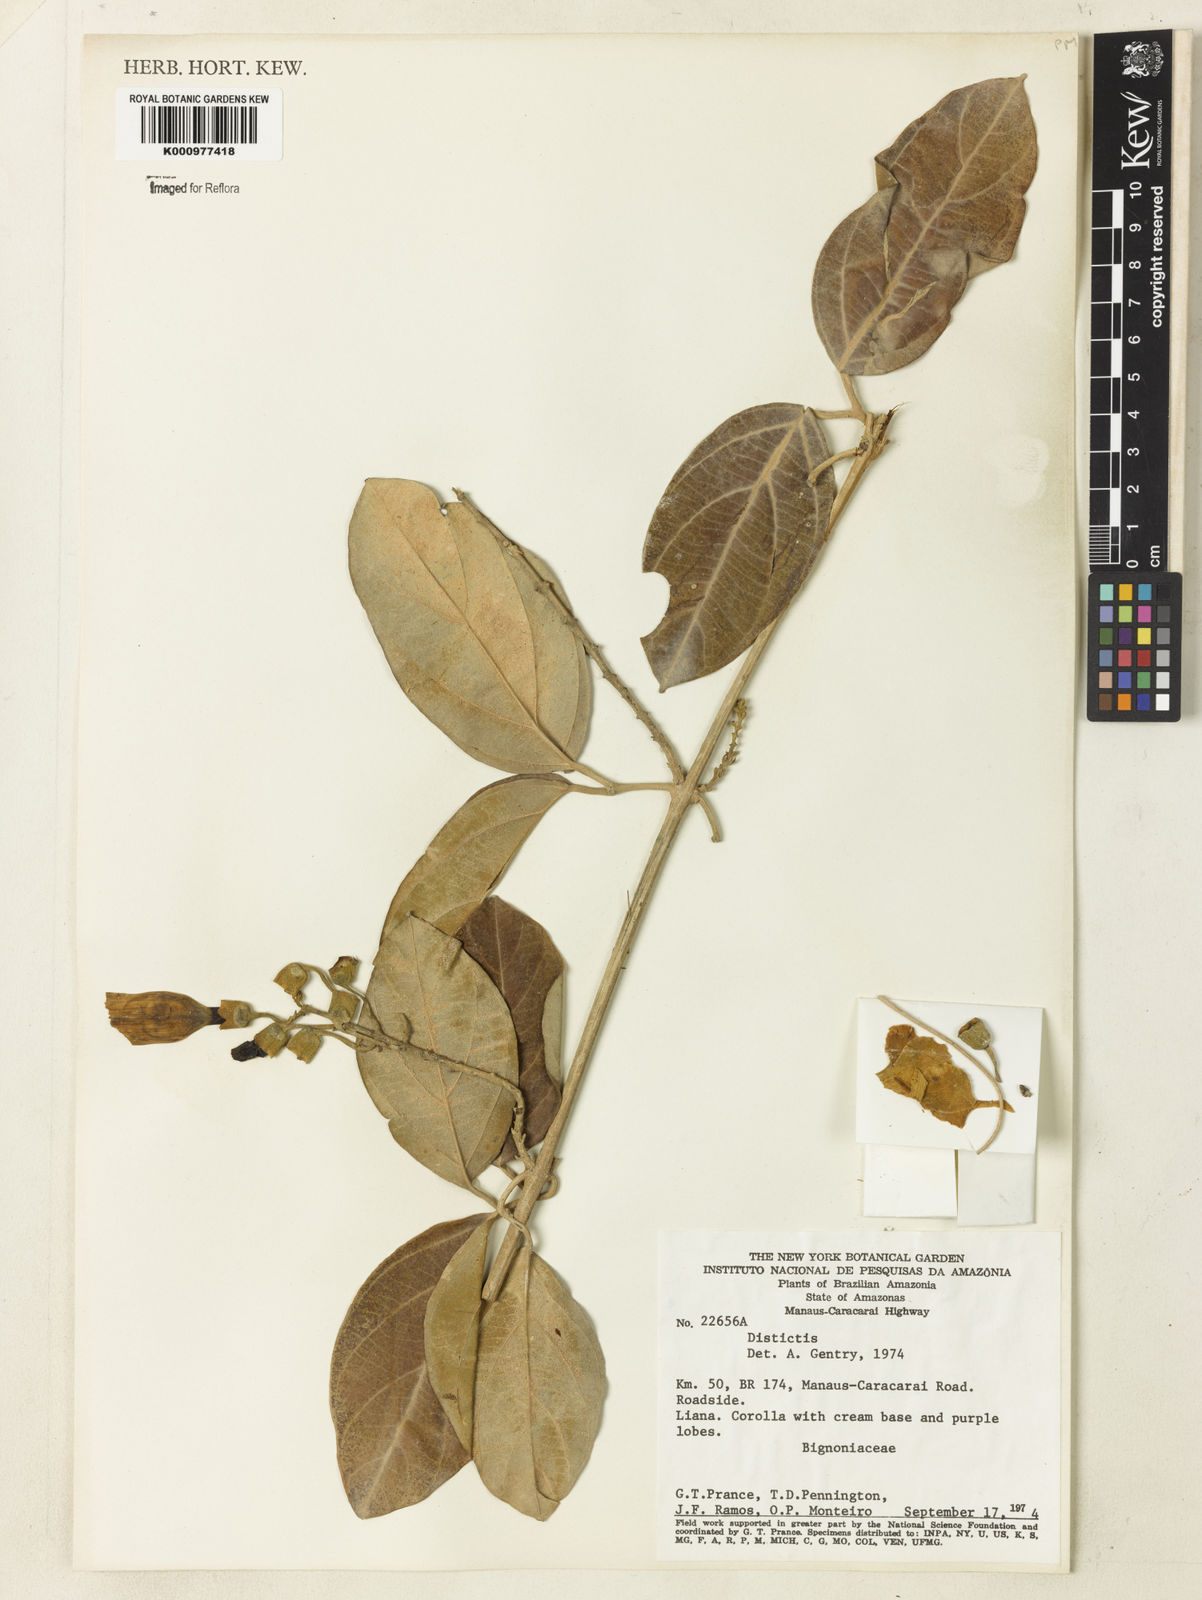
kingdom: Plantae
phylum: Tracheophyta
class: Magnoliopsida
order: Lamiales
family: Bignoniaceae
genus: Amphilophium
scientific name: Amphilophium
